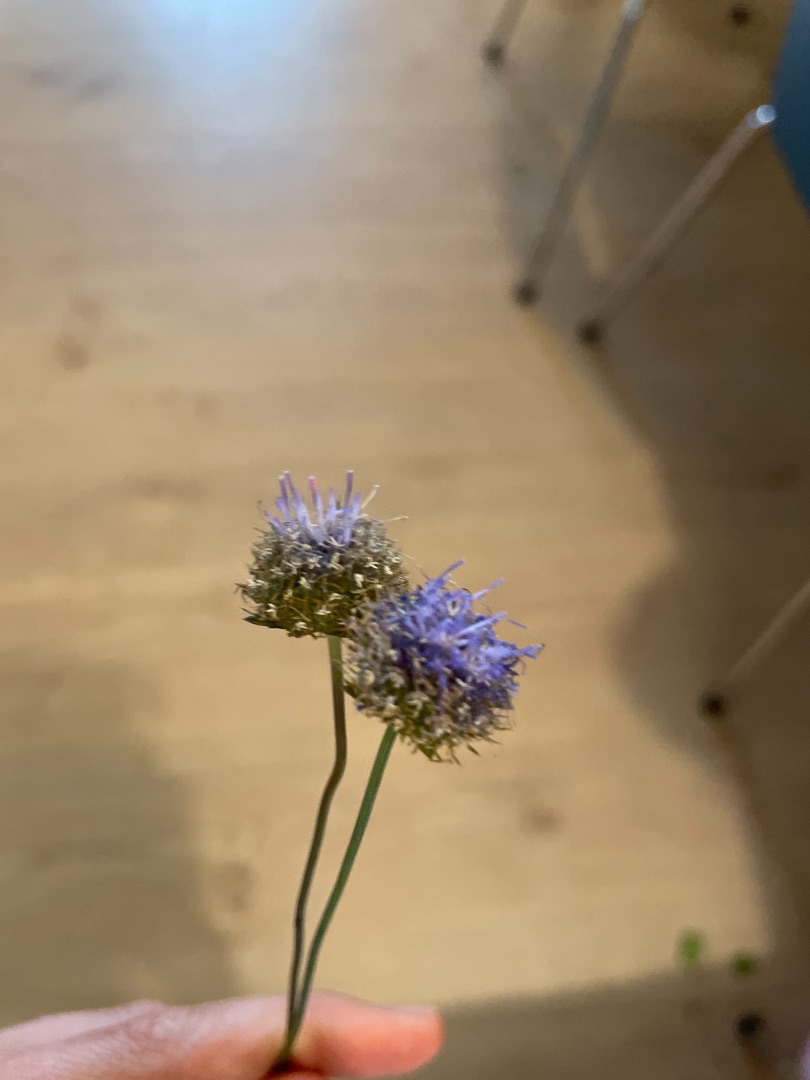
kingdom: Plantae
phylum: Tracheophyta
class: Magnoliopsida
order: Asterales
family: Campanulaceae
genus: Jasione
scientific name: Jasione montana
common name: Blåmunke
